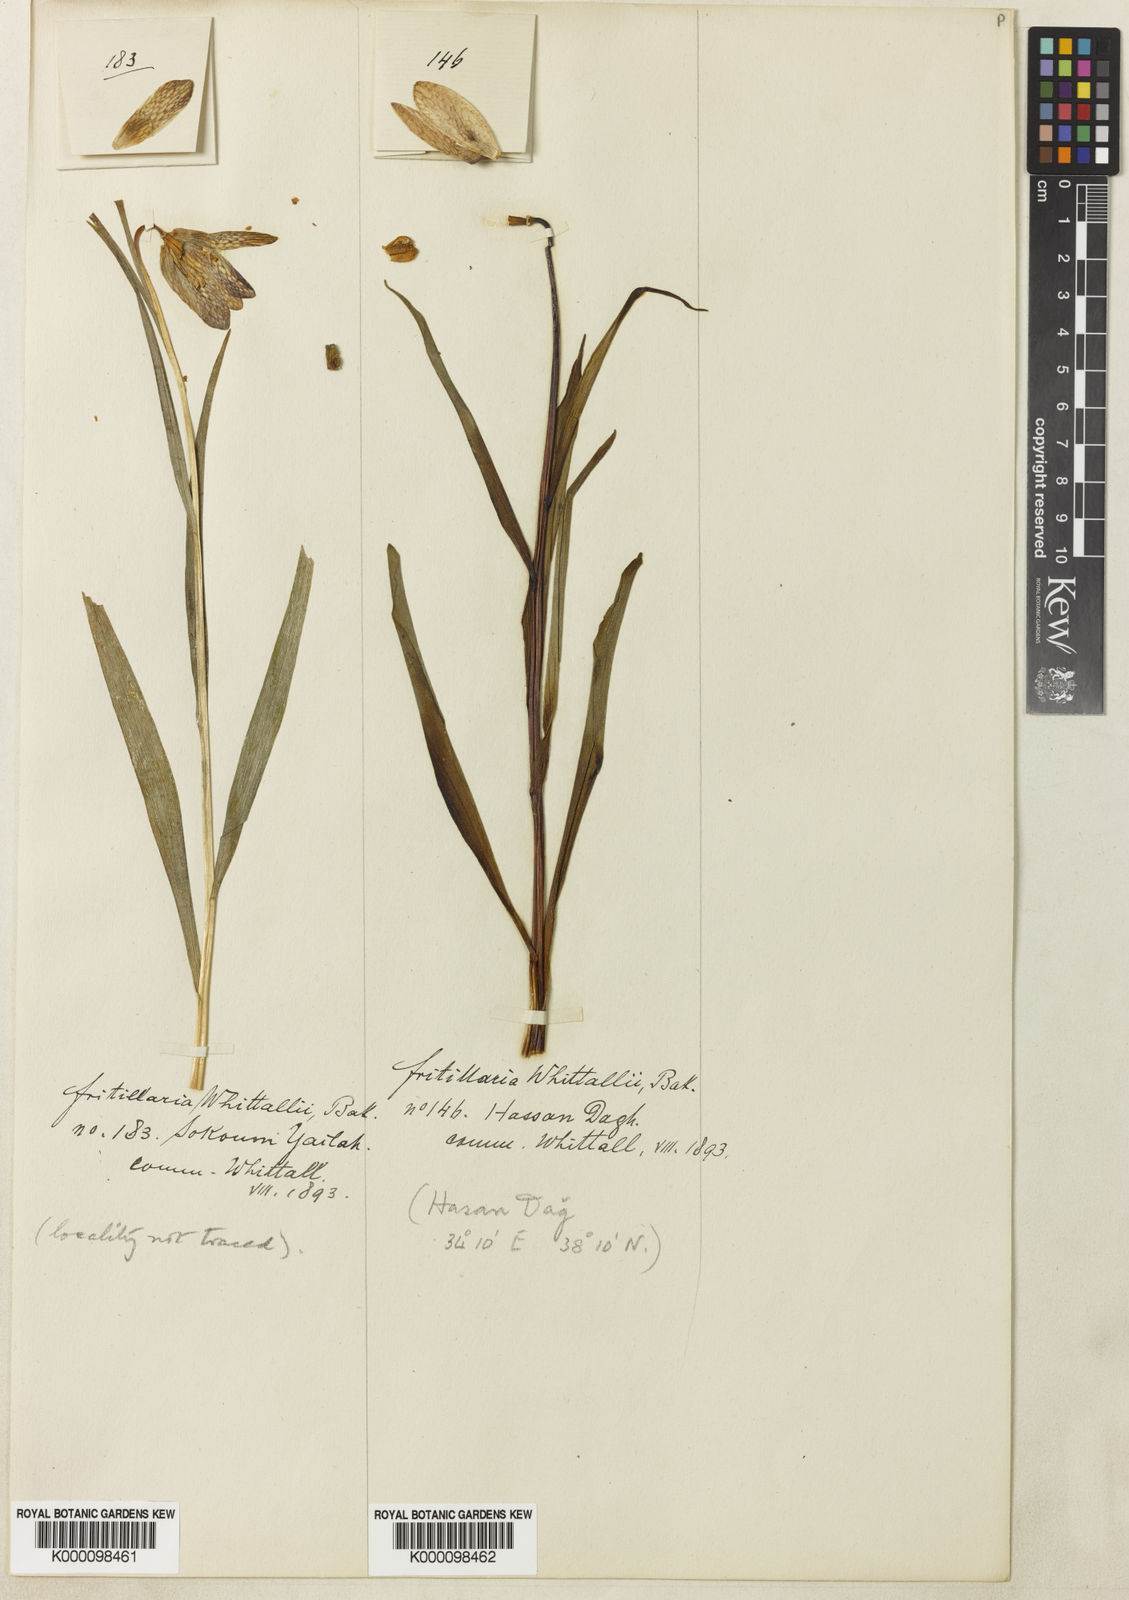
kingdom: Plantae
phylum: Tracheophyta
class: Liliopsida
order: Liliales
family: Liliaceae
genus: Fritillaria
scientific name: Fritillaria whittallii
